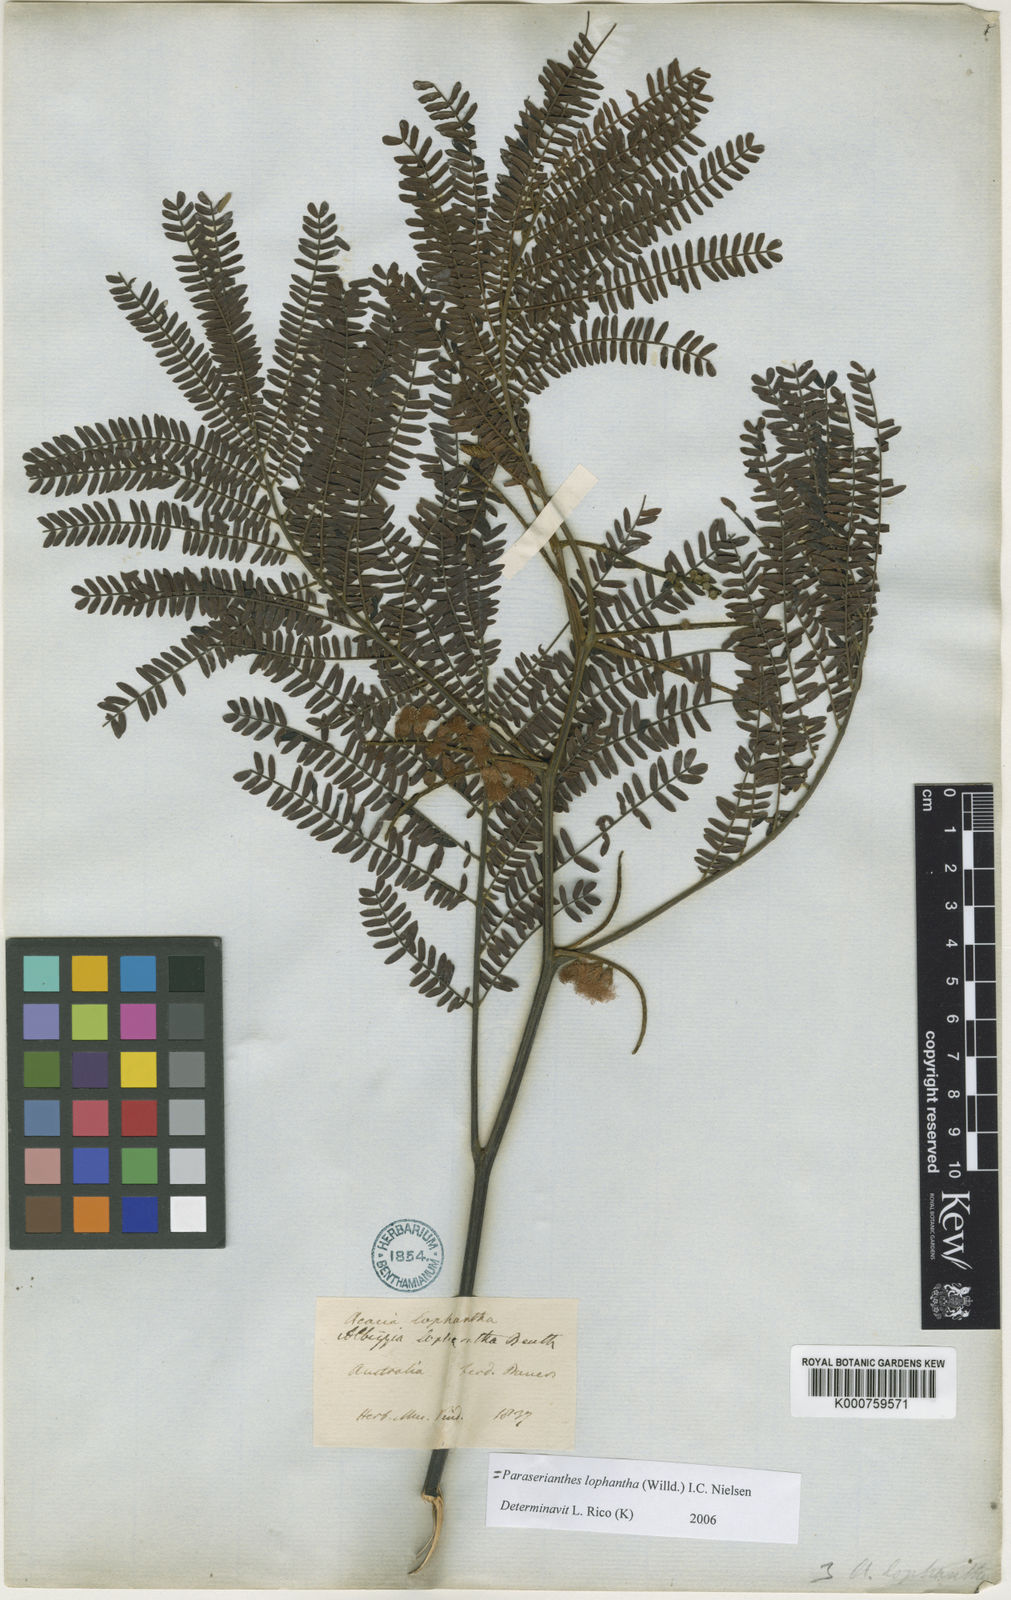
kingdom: Plantae
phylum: Tracheophyta
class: Magnoliopsida
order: Fabales
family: Fabaceae
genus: Paraserianthes
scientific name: Paraserianthes lophantha
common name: Plume albizia
